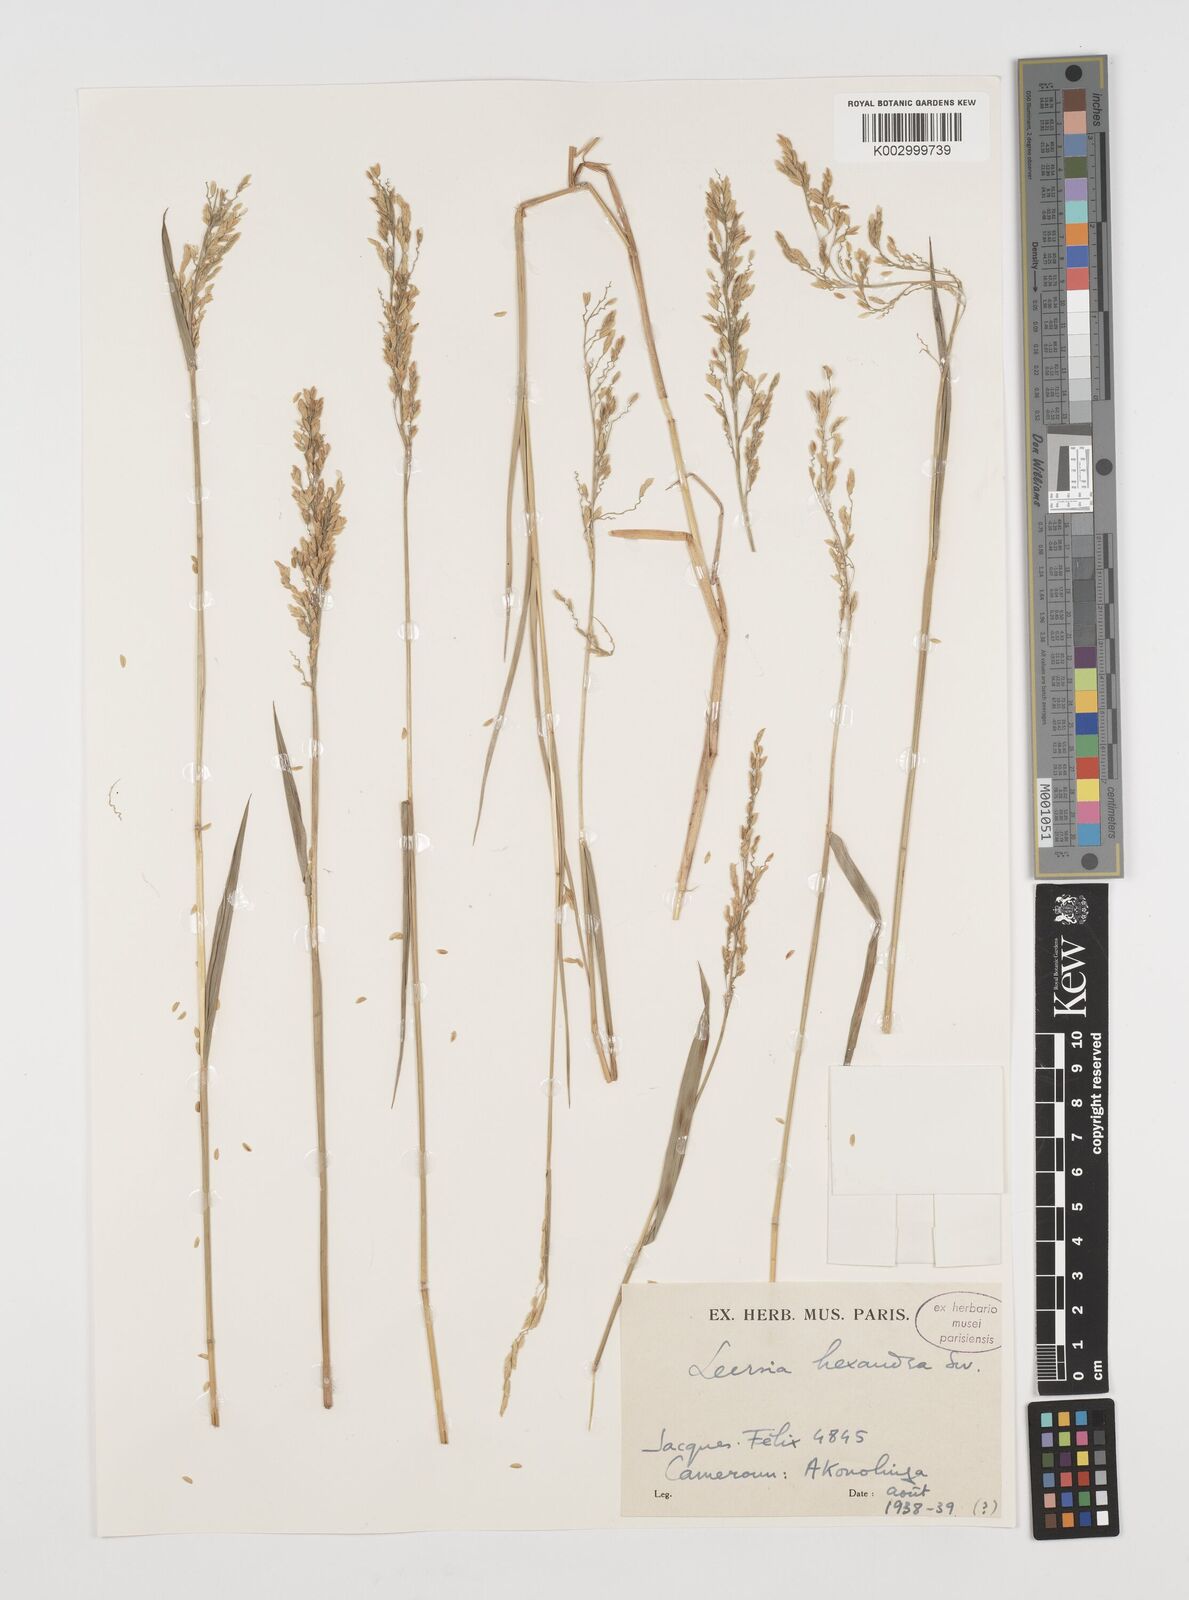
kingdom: Plantae
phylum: Tracheophyta
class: Liliopsida
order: Poales
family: Poaceae
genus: Leersia
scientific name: Leersia hexandra
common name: Southern cut grass
